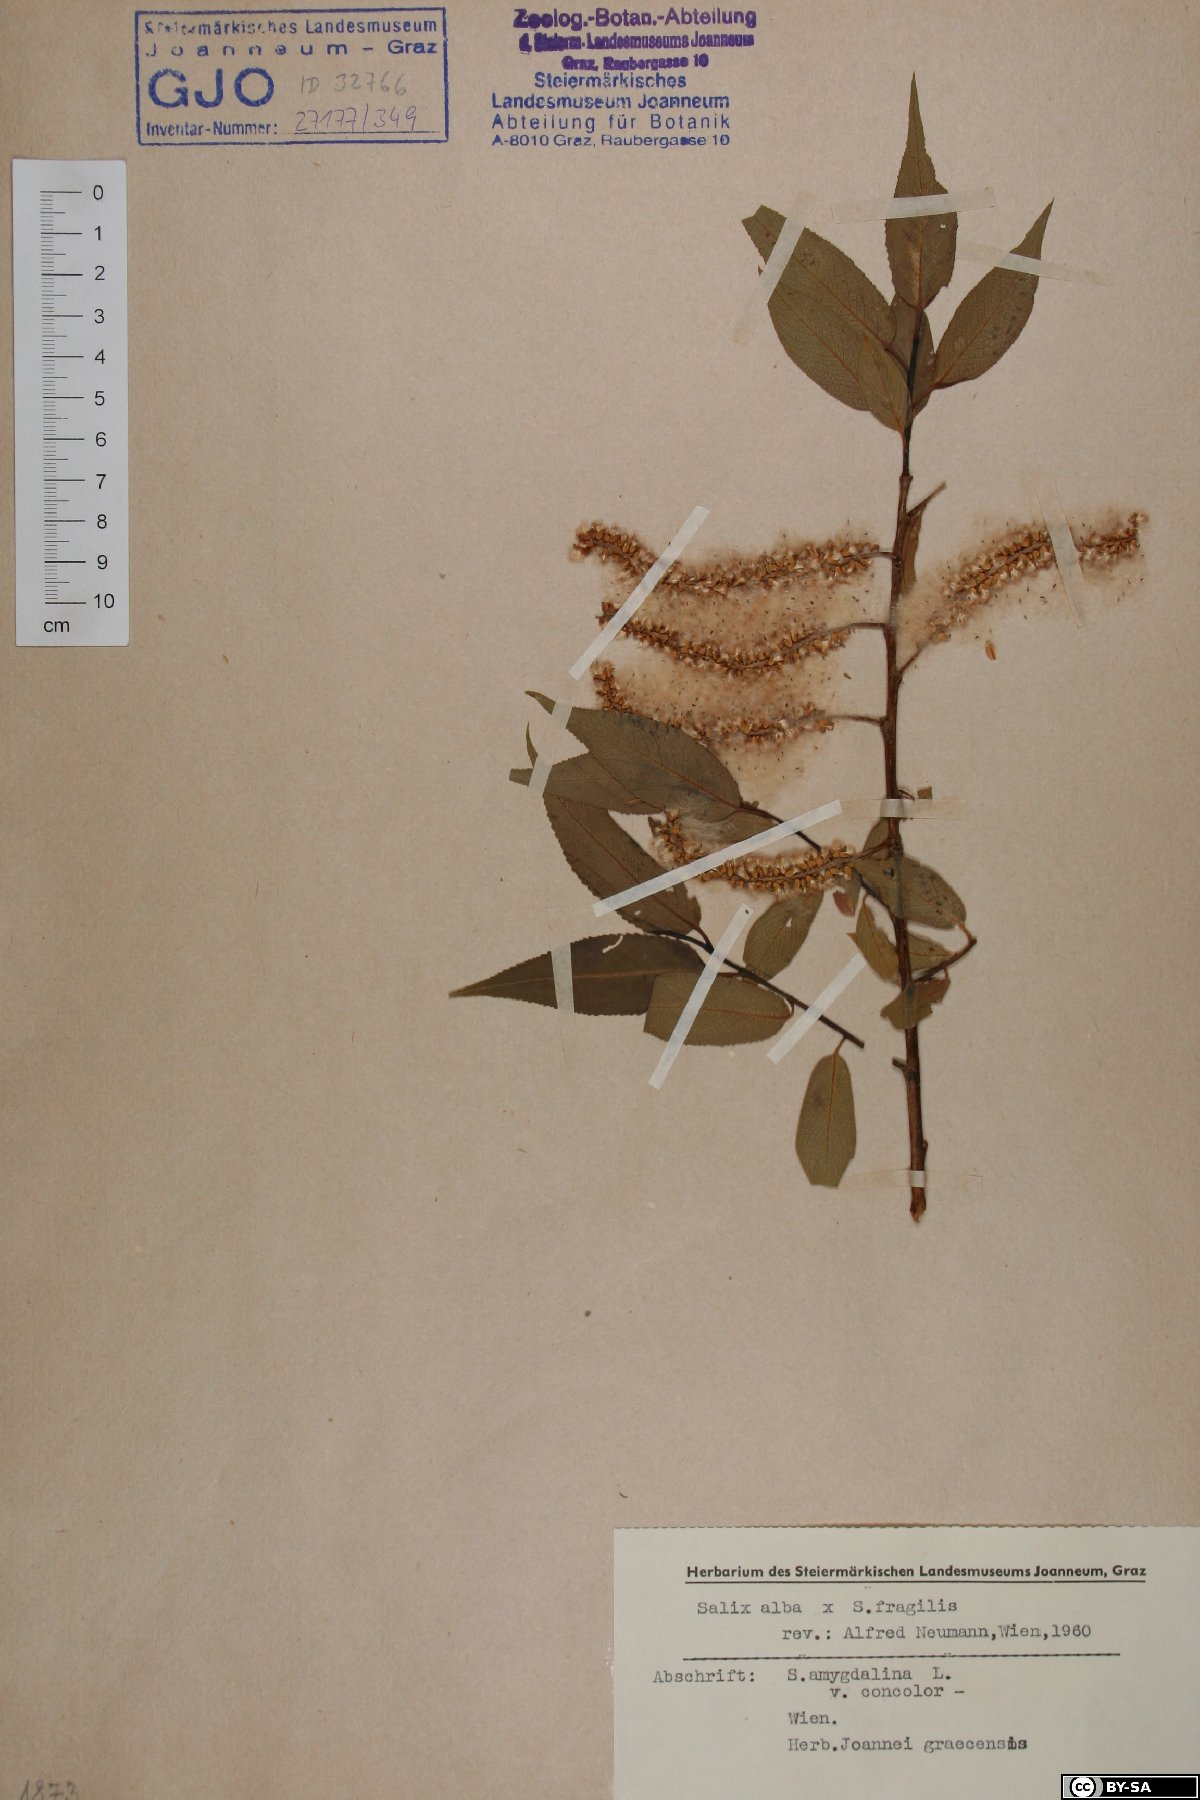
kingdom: Plantae
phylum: Tracheophyta
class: Magnoliopsida
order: Malpighiales
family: Salicaceae
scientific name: Salicaceae
